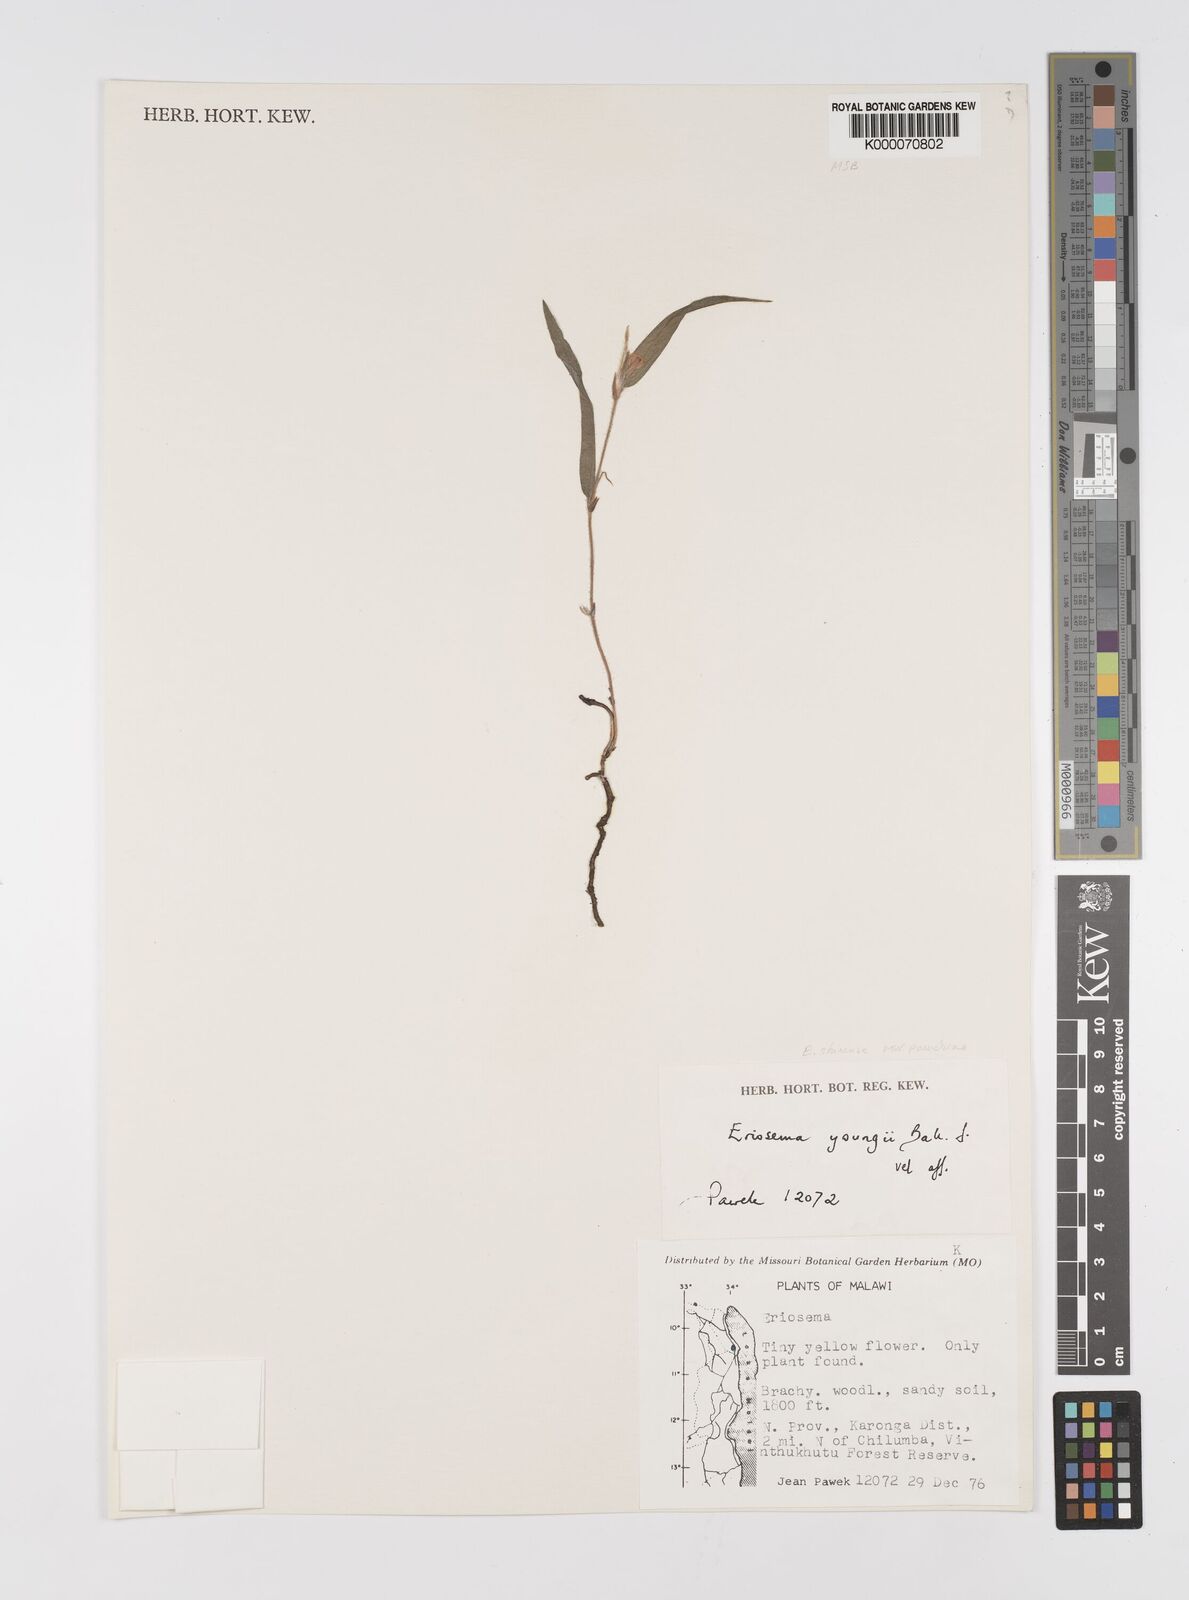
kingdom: Plantae
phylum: Tracheophyta
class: Magnoliopsida
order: Fabales
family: Fabaceae
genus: Eriosema
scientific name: Eriosema shirense
